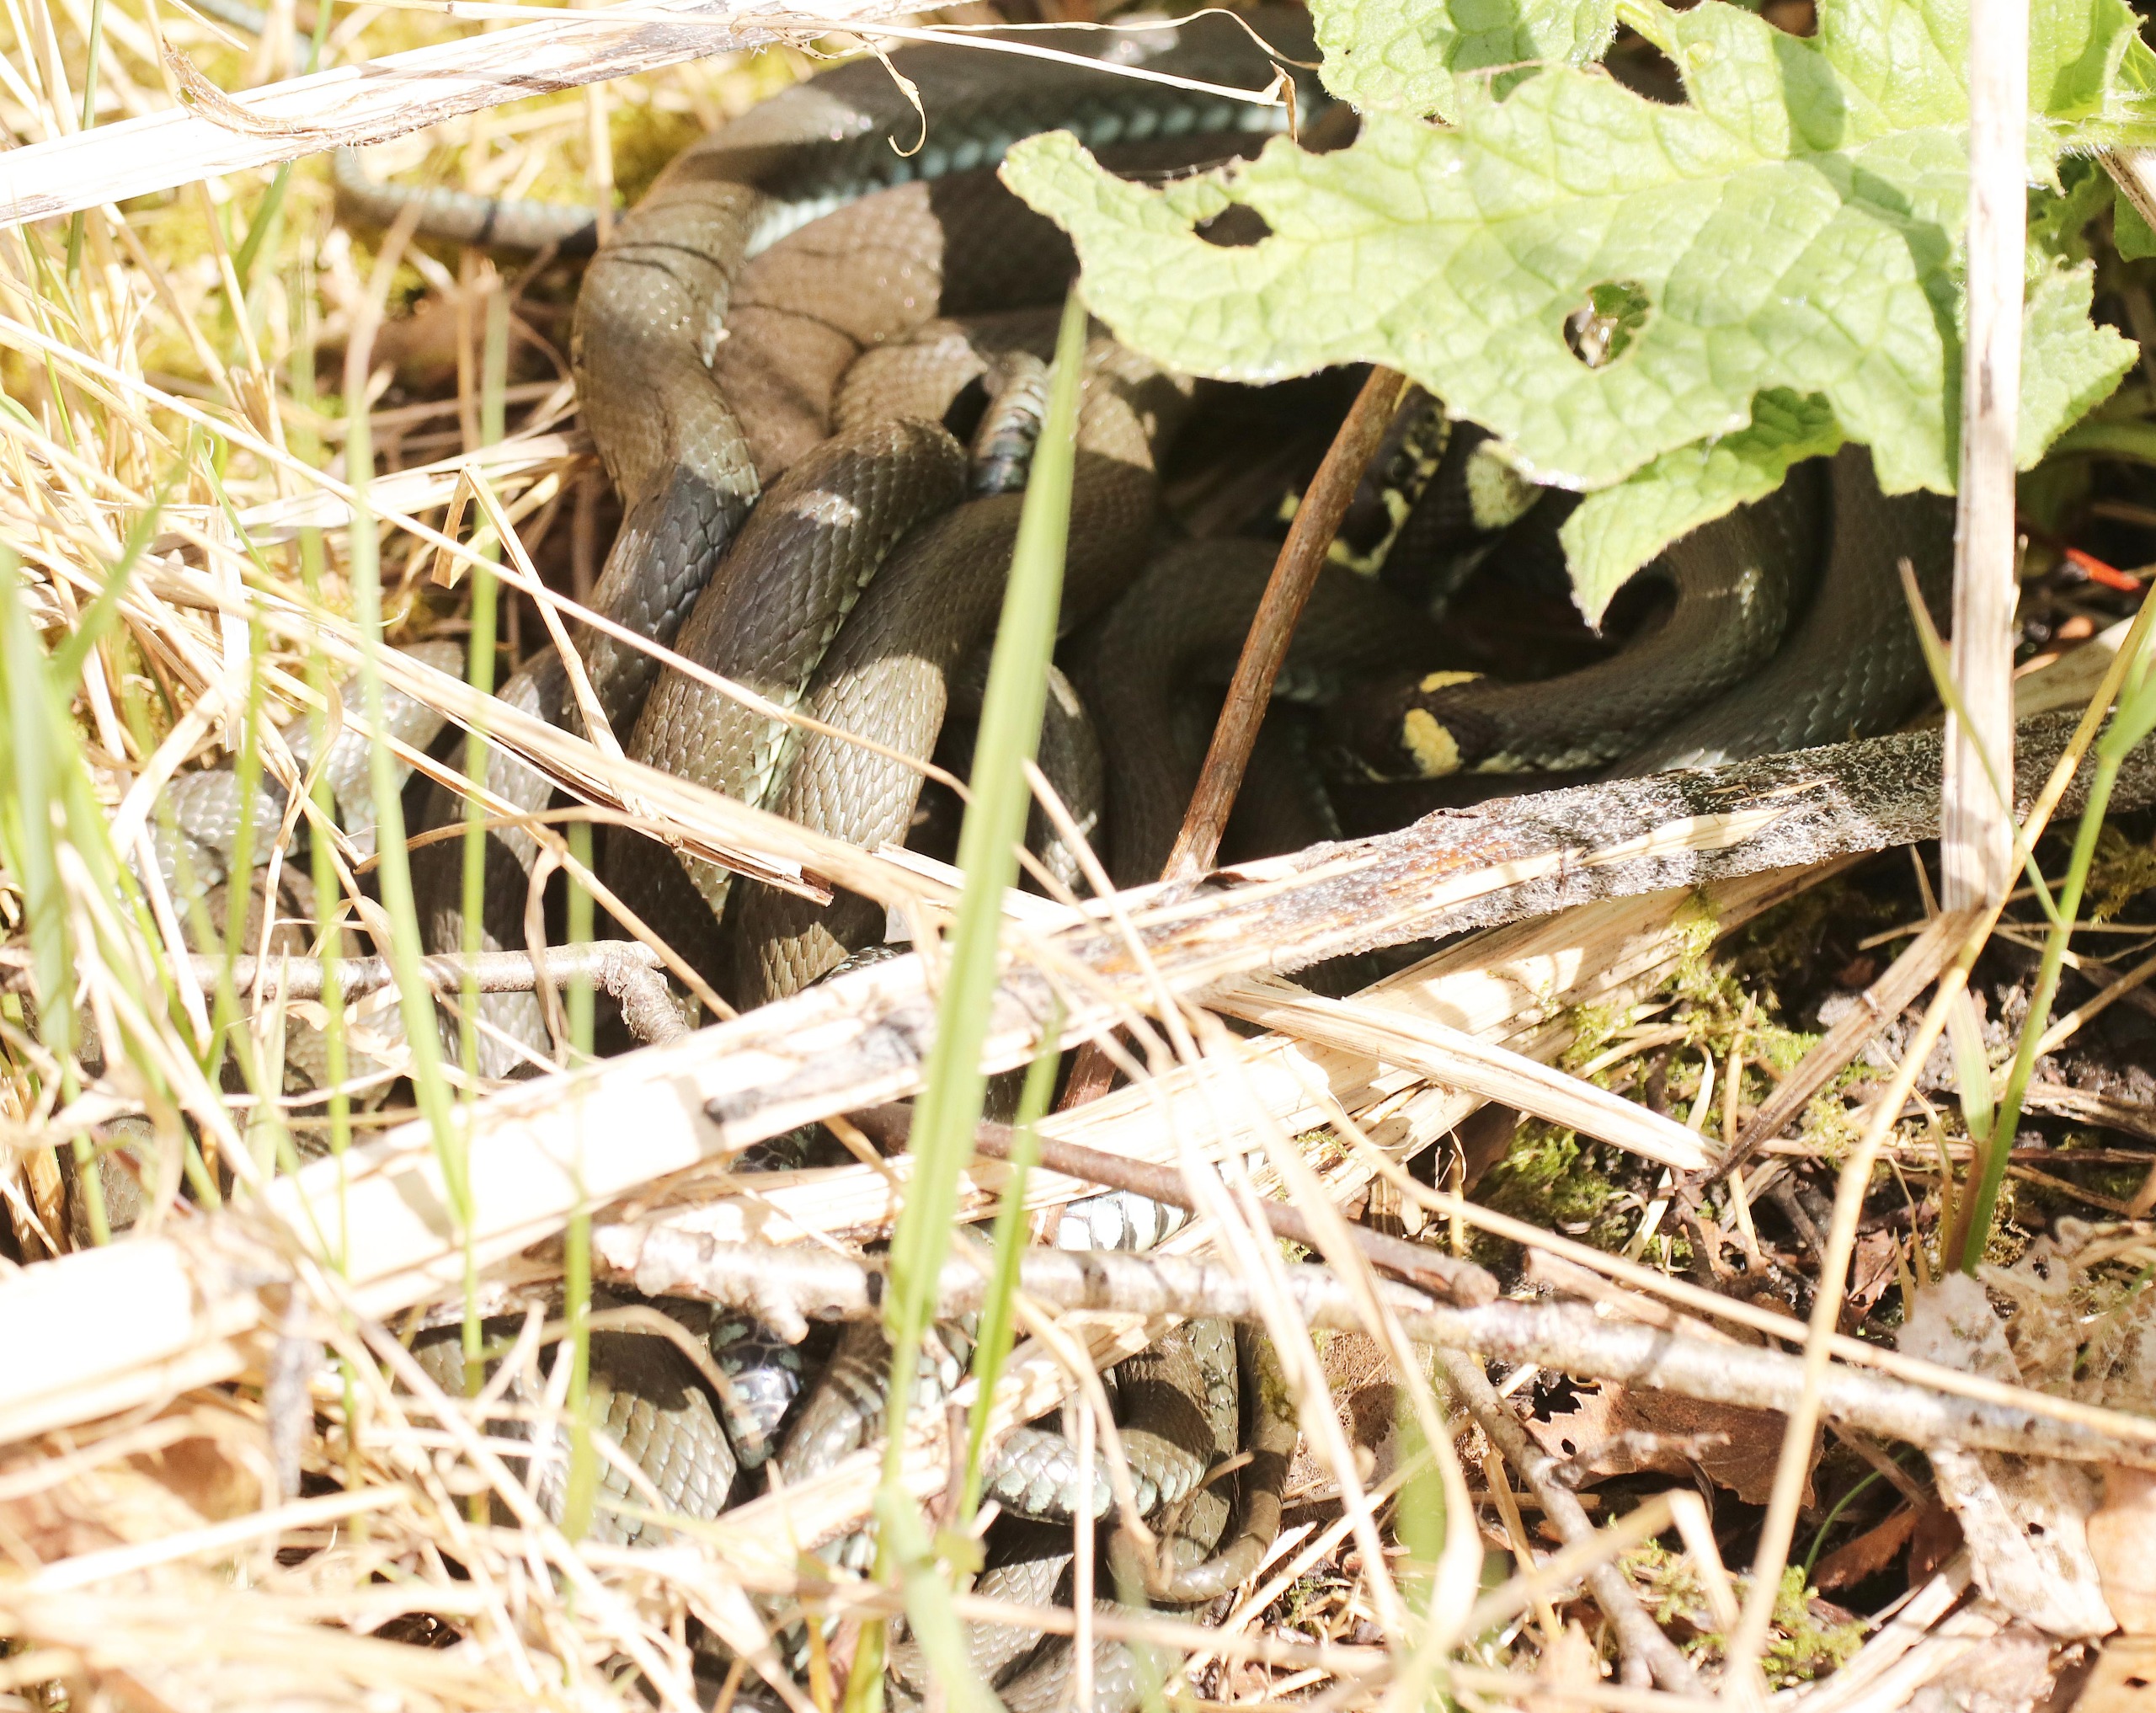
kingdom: Animalia
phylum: Chordata
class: Squamata
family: Colubridae
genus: Natrix
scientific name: Natrix natrix
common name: Snog
